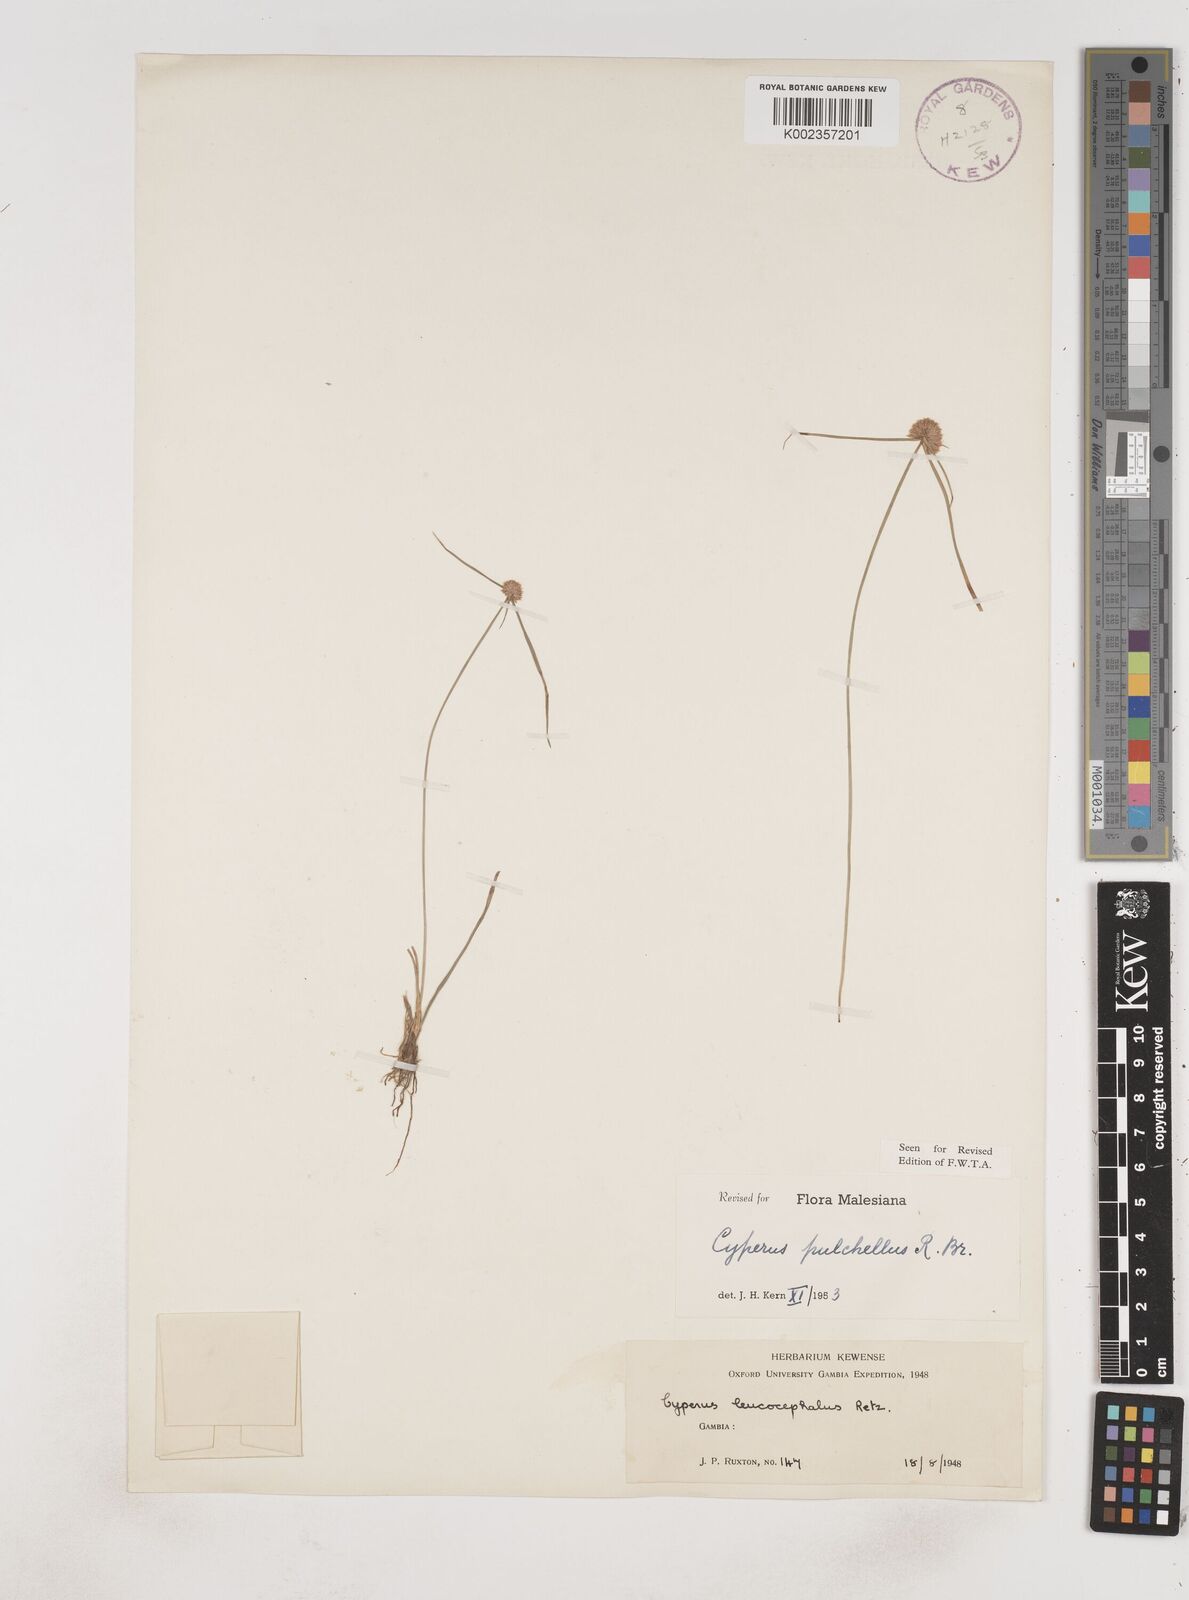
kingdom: Plantae
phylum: Tracheophyta
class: Liliopsida
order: Poales
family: Cyperaceae
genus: Cyperus
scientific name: Cyperus pulchellus
